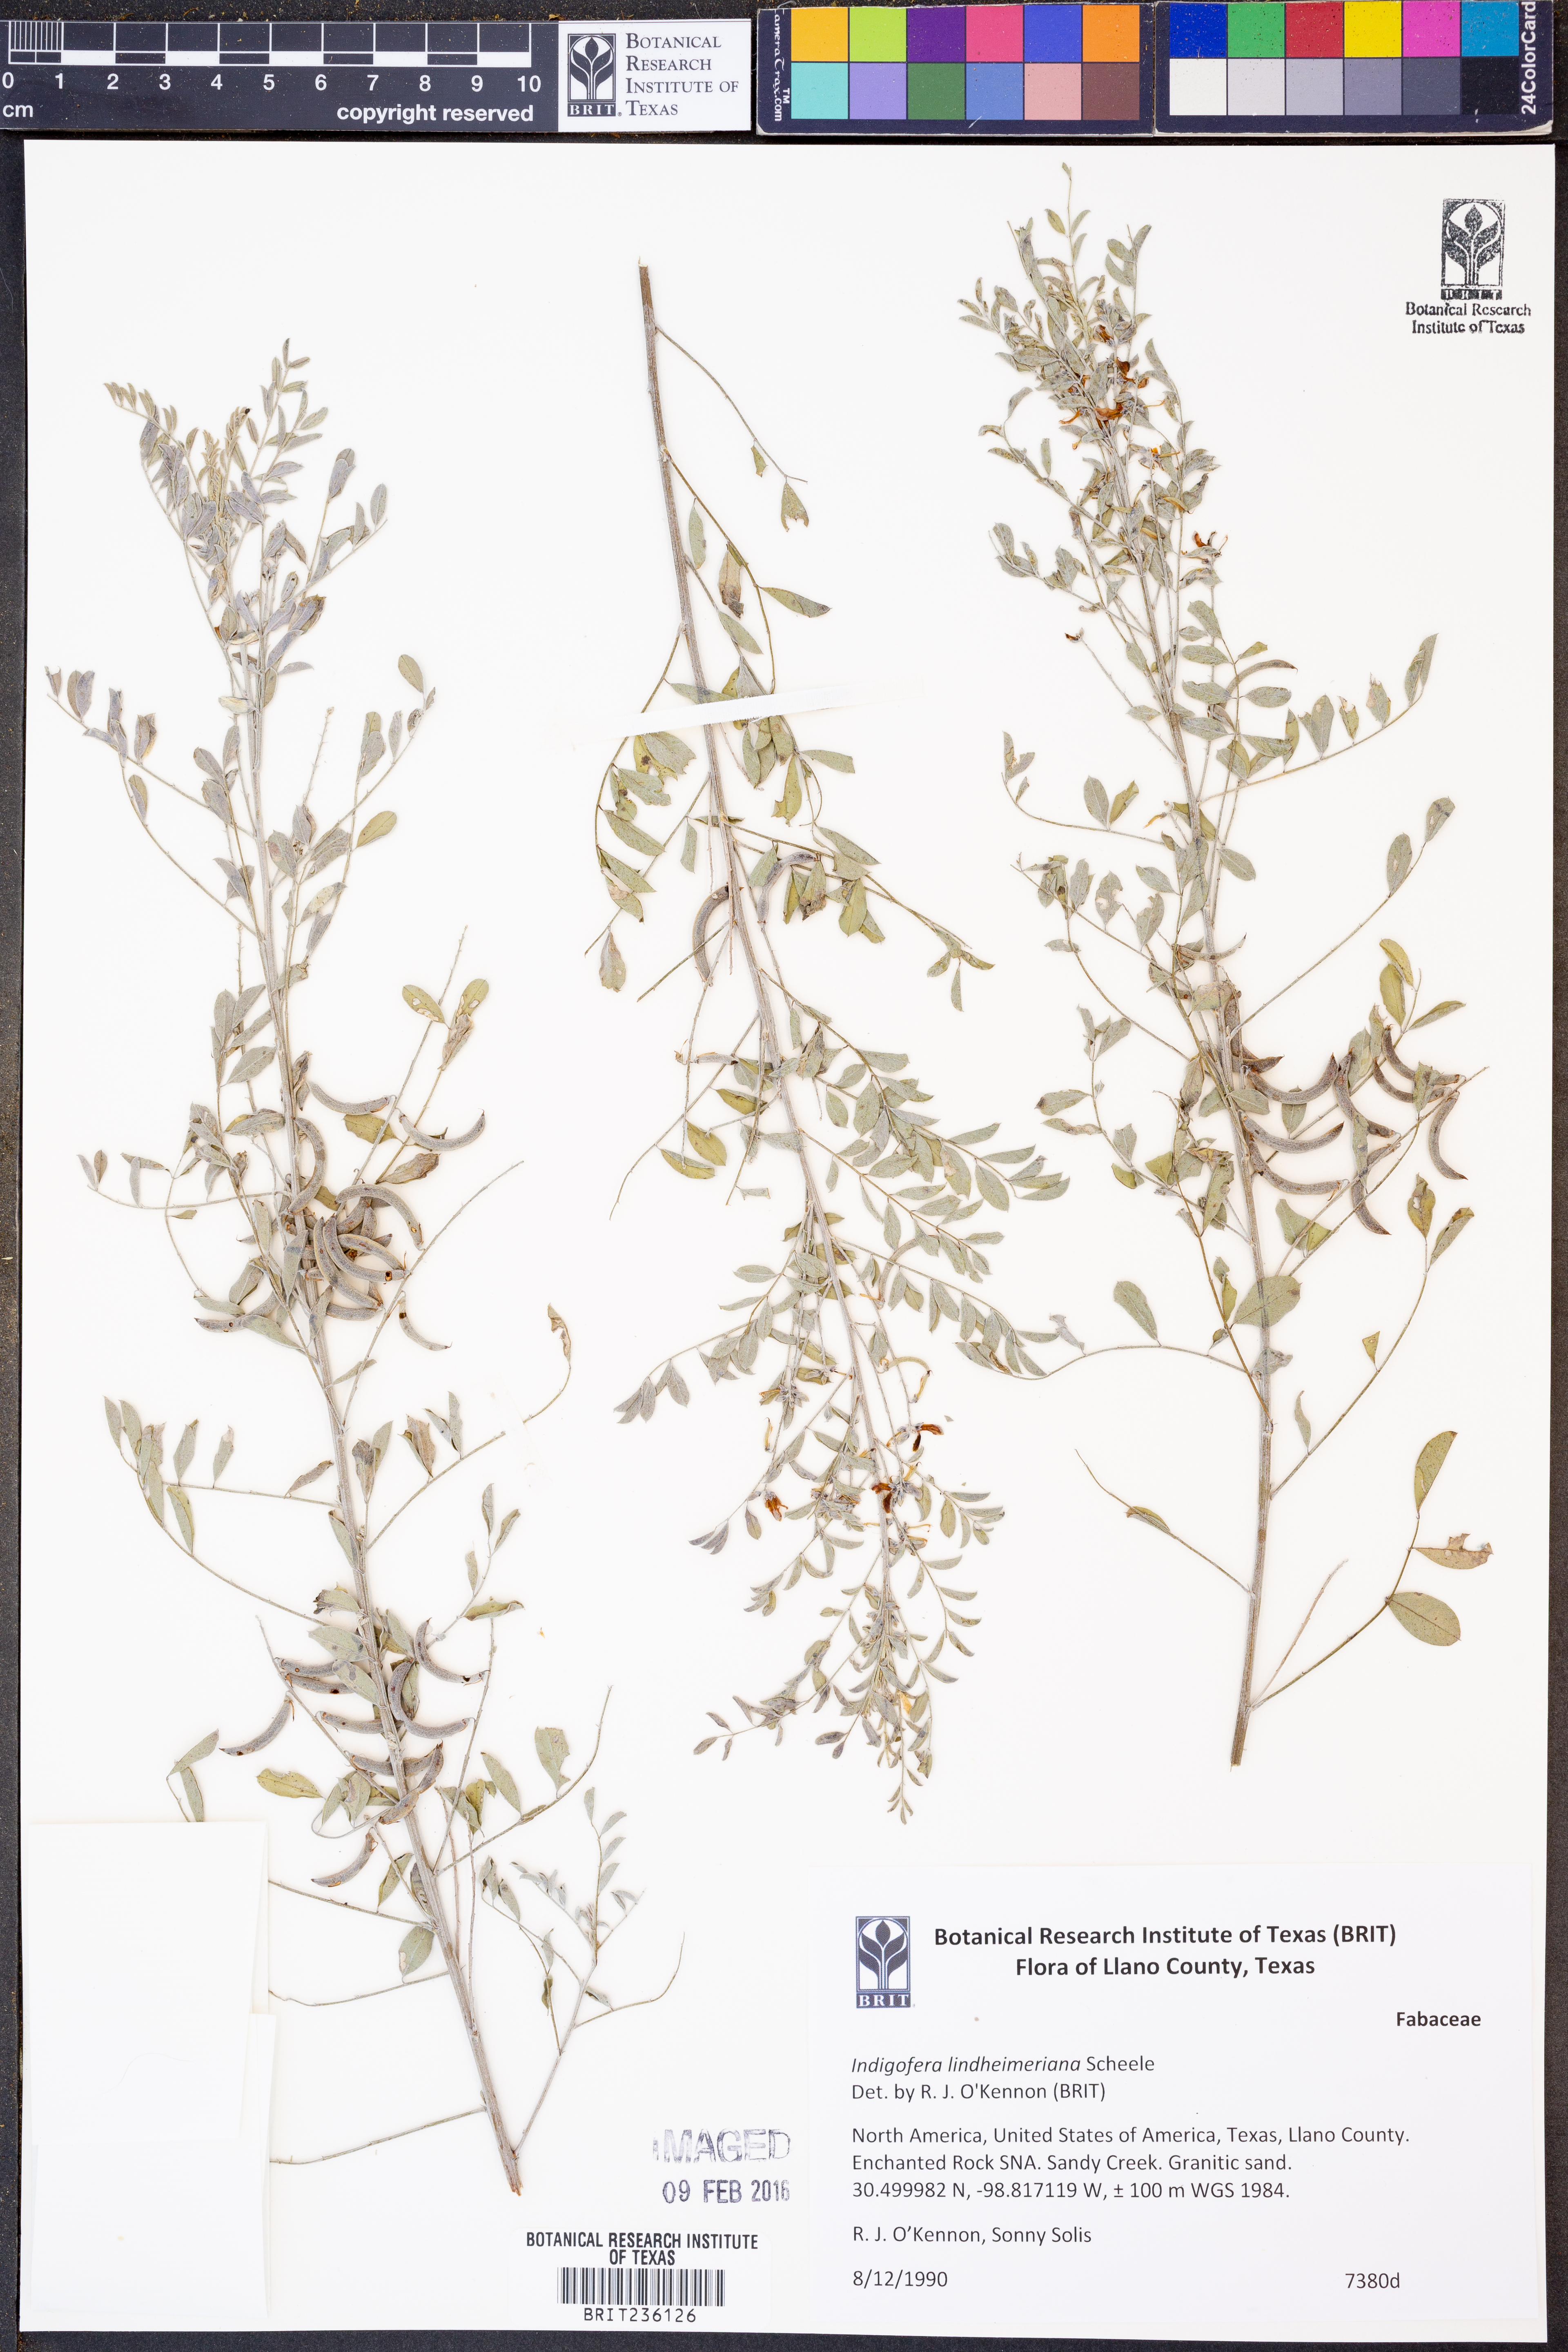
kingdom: Plantae
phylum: Tracheophyta
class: Magnoliopsida
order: Fabales
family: Fabaceae
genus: Indigofera
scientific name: Indigofera lindheimeriana
